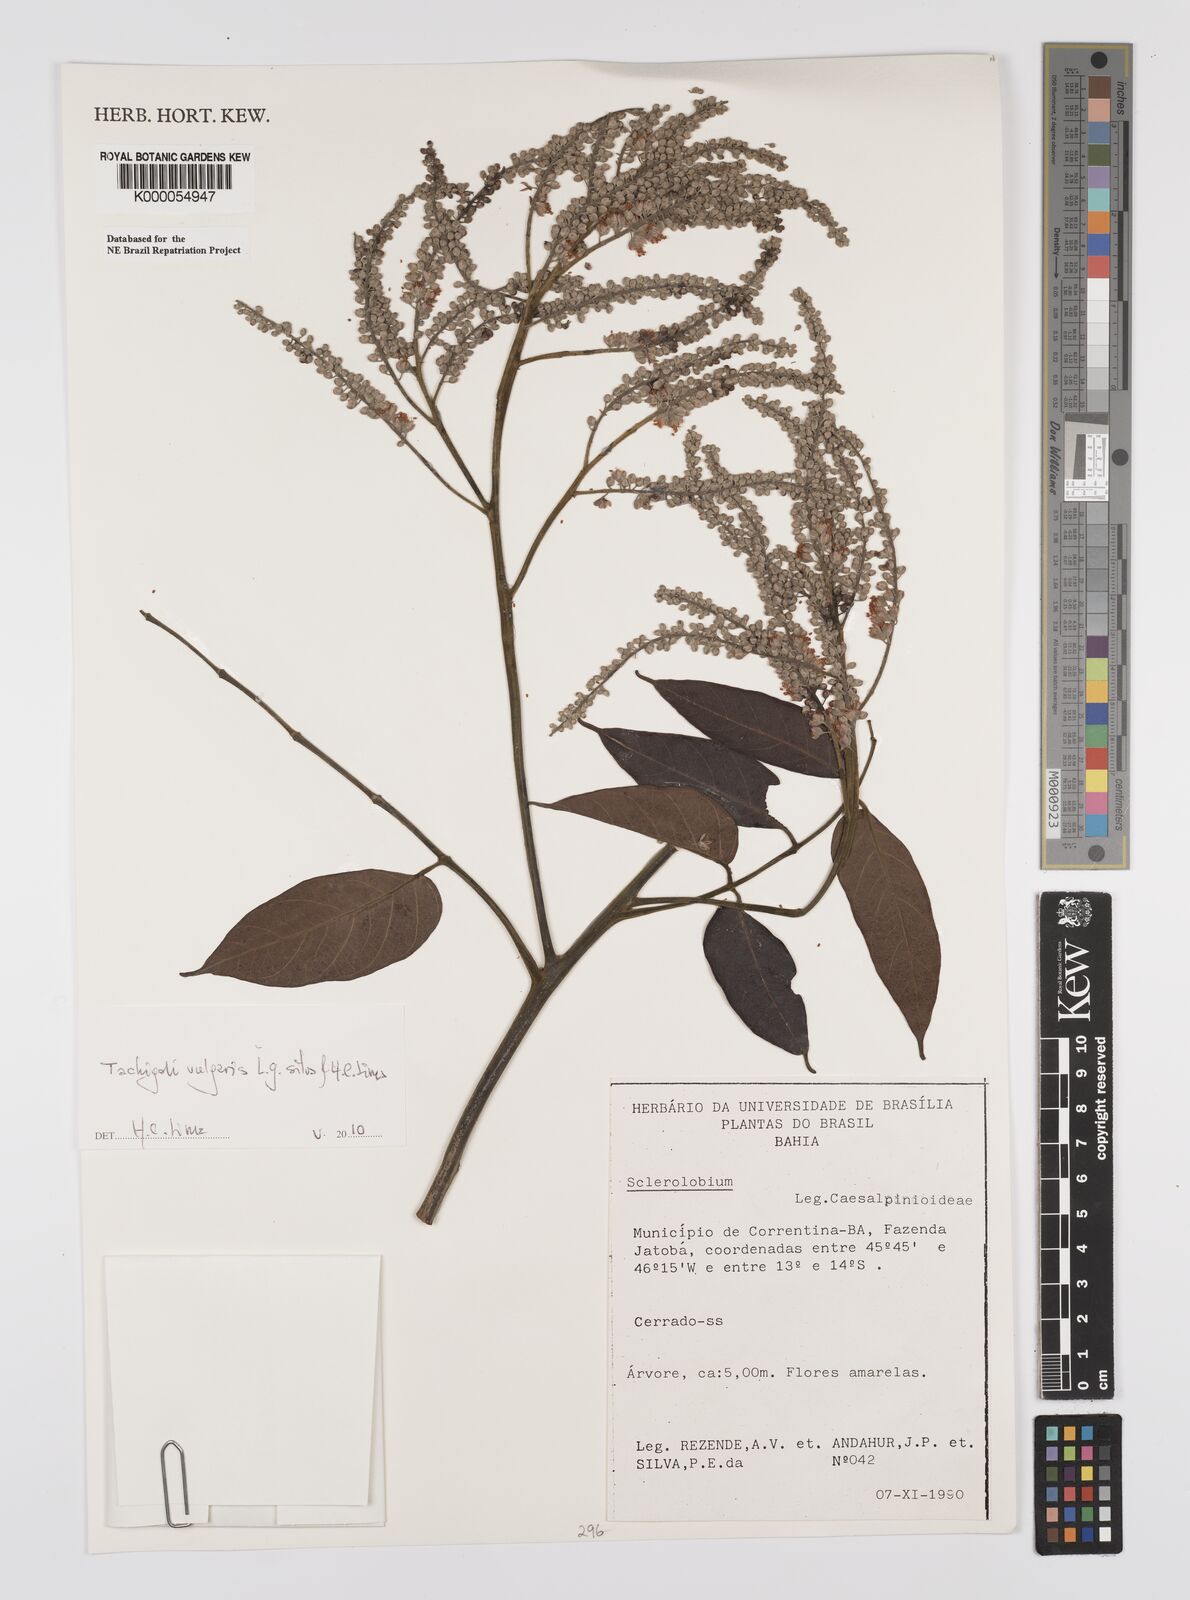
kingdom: Plantae
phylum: Tracheophyta
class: Magnoliopsida
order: Fabales
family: Fabaceae
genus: Tachigali
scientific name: Tachigali
